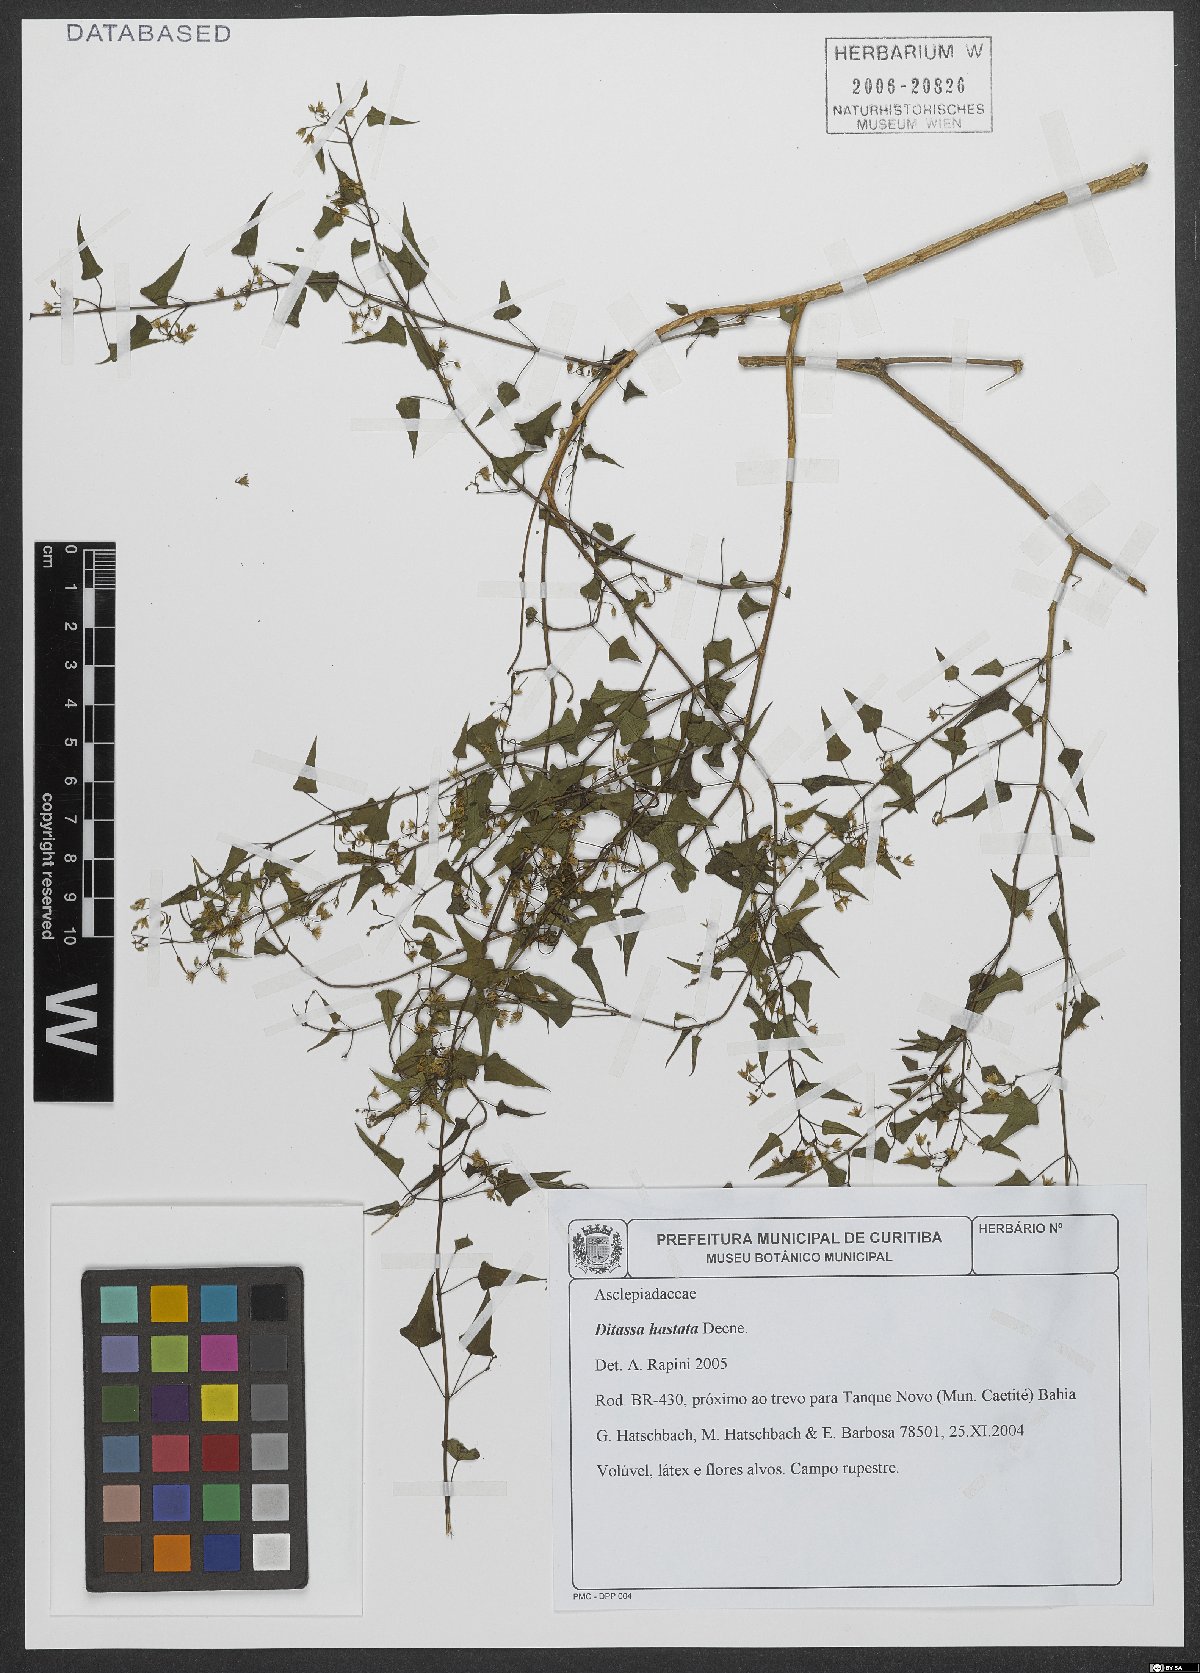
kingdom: Plantae
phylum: Tracheophyta
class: Magnoliopsida
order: Gentianales
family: Apocynaceae
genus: Ditassa
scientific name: Ditassa hastata
